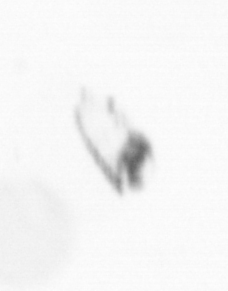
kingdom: Chromista
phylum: Ochrophyta
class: Bacillariophyceae
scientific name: Bacillariophyceae
